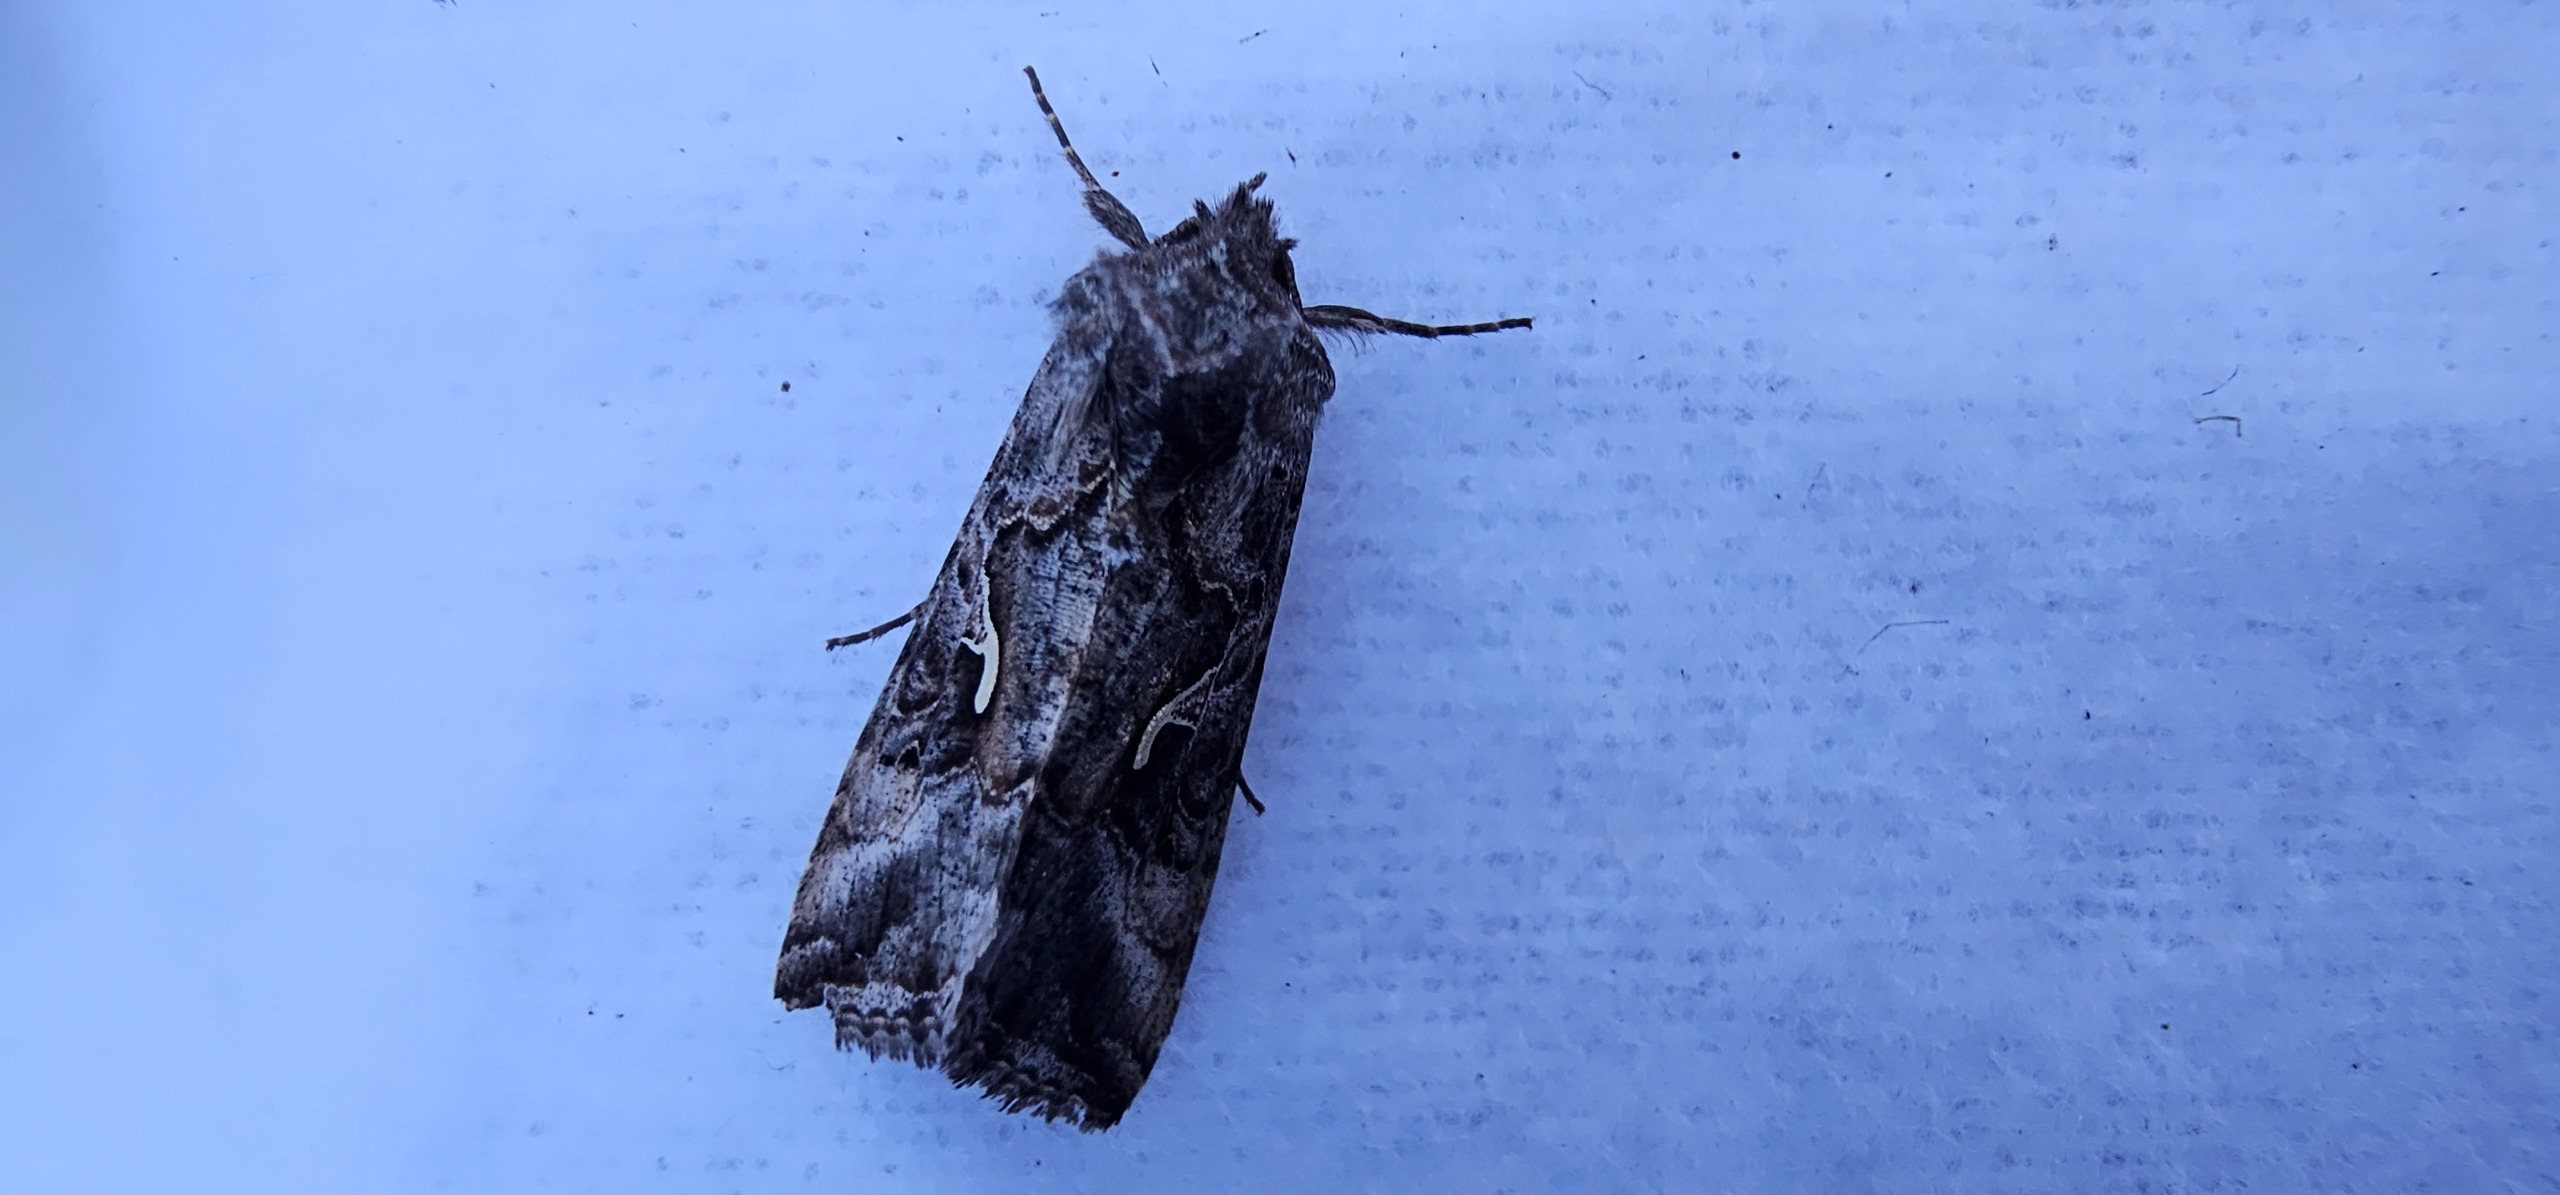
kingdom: Animalia
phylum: Arthropoda
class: Insecta
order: Lepidoptera
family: Noctuidae
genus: Autographa
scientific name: Autographa gamma
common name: Gammaugle
